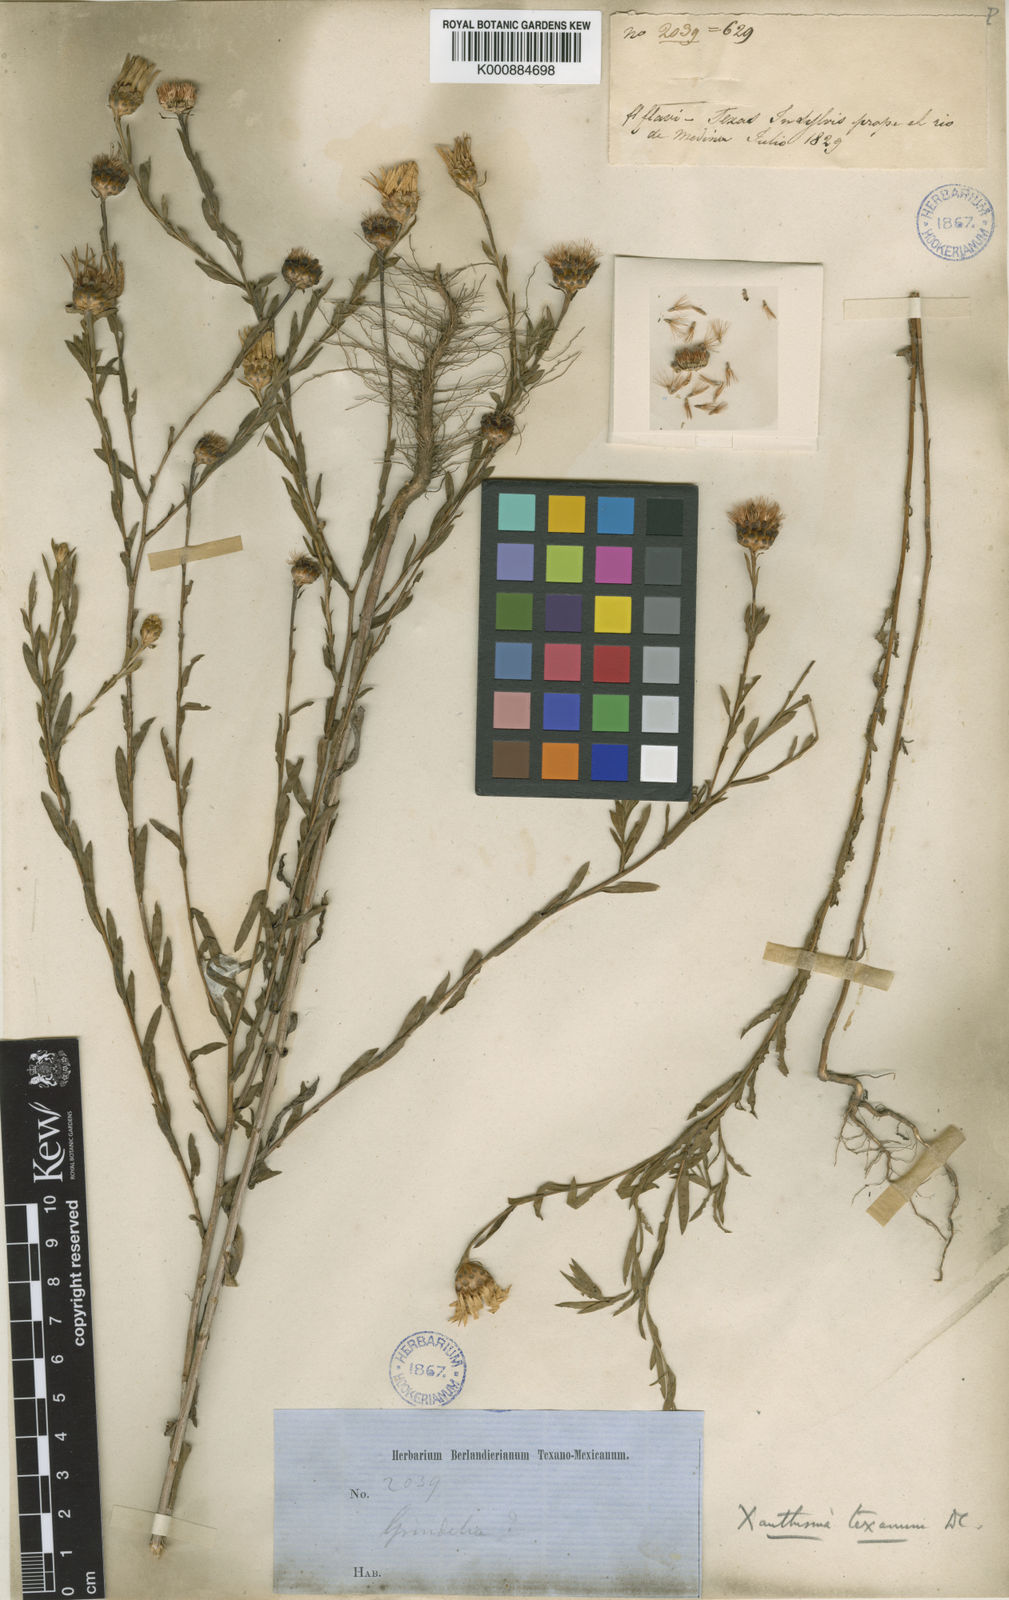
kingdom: Plantae
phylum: Tracheophyta
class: Magnoliopsida
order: Asterales
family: Asteraceae
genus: Xanthisma
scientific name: Xanthisma texanum
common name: Texas sleepy daisy
